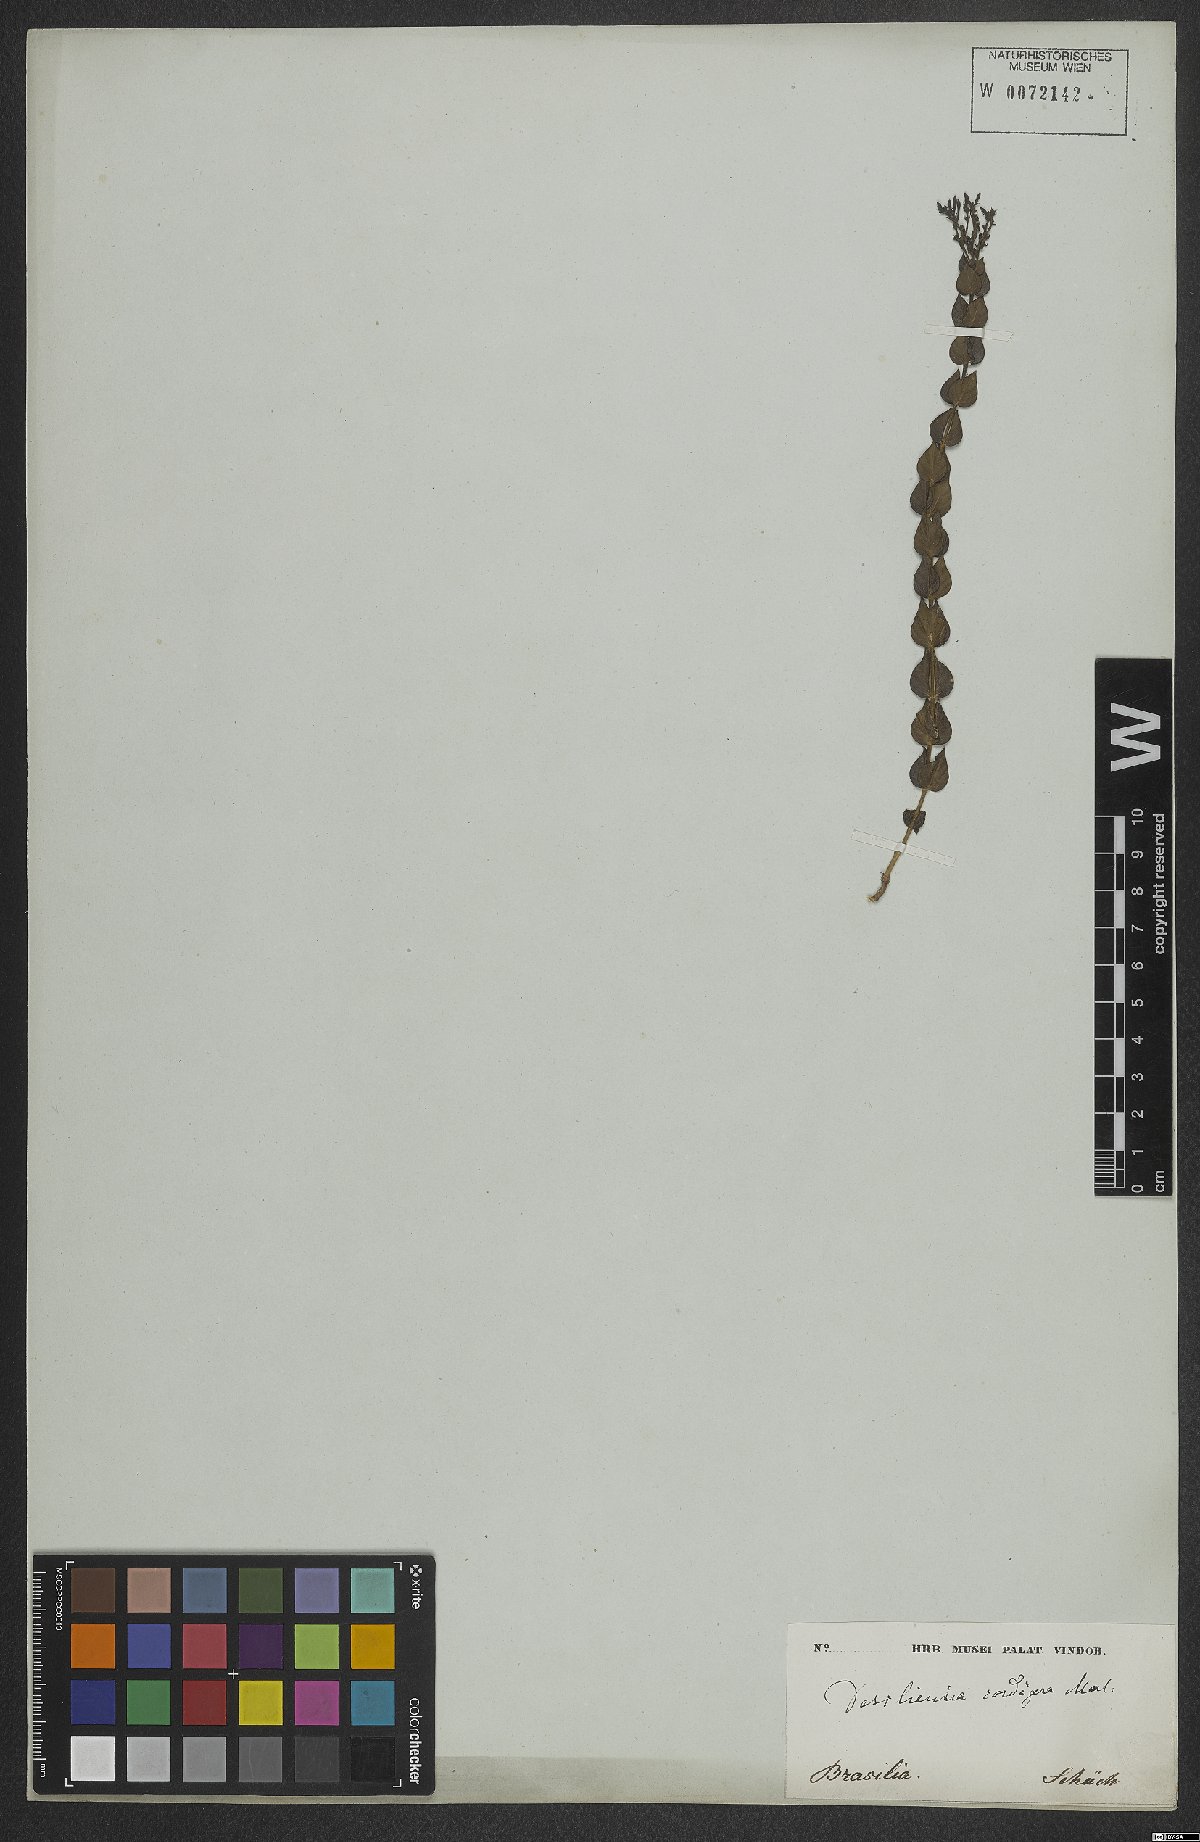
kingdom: Plantae
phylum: Tracheophyta
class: Magnoliopsida
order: Gentianales
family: Rubiaceae
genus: Declieuxia
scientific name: Declieuxia cordigera
